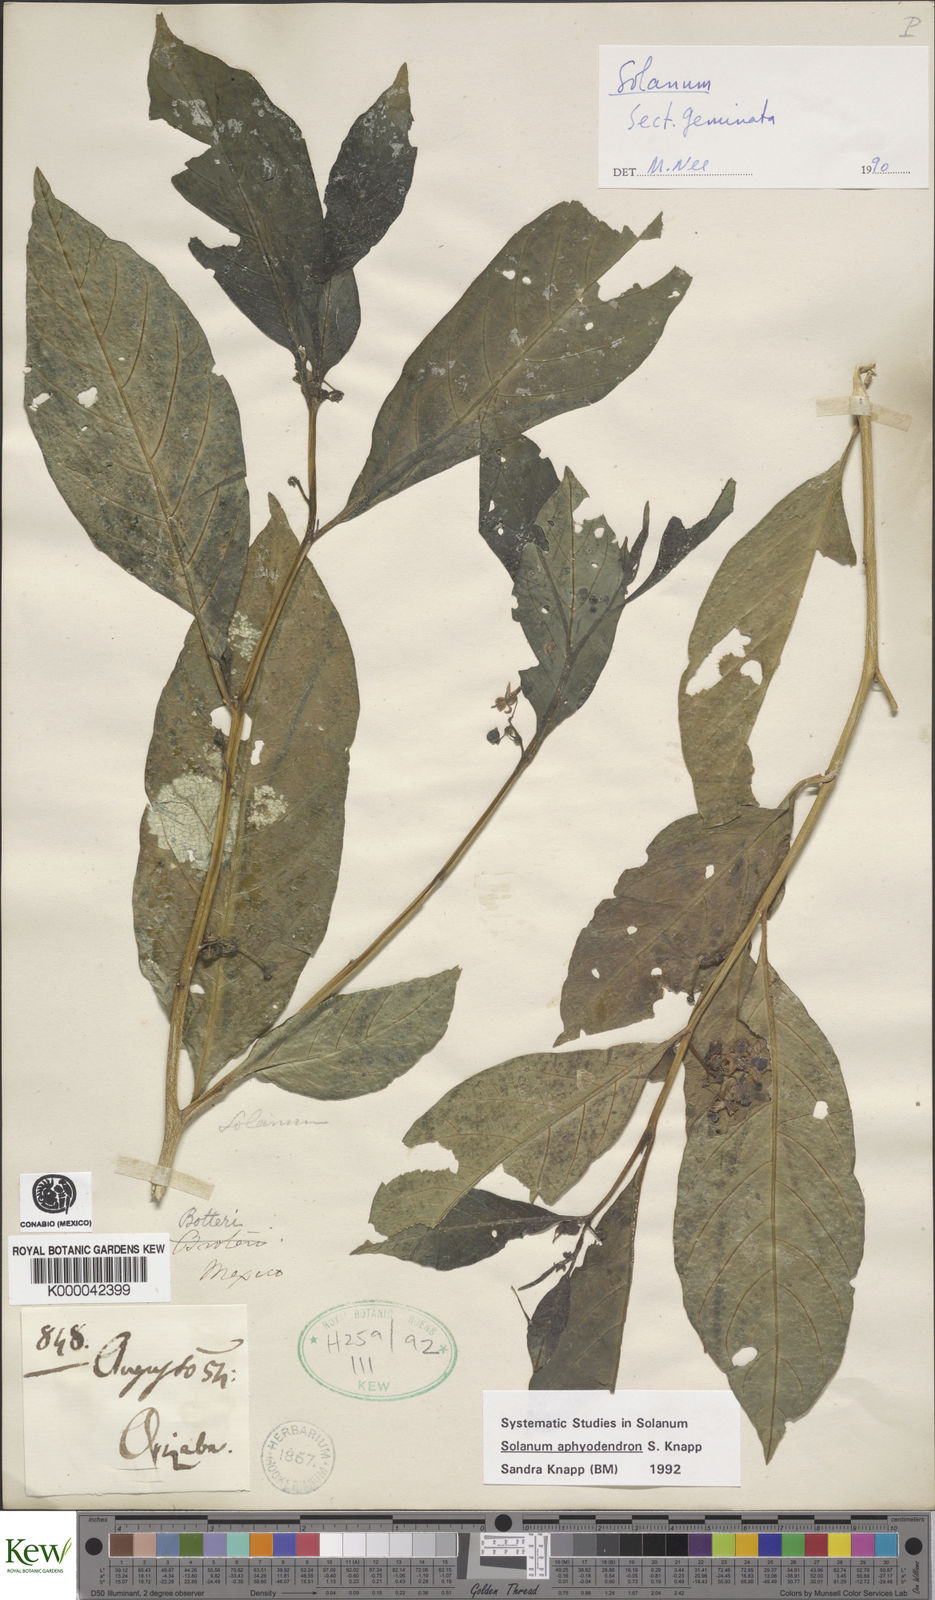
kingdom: Plantae
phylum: Tracheophyta
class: Magnoliopsida
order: Solanales
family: Solanaceae
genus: Solanum
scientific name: Solanum aphyodendron
